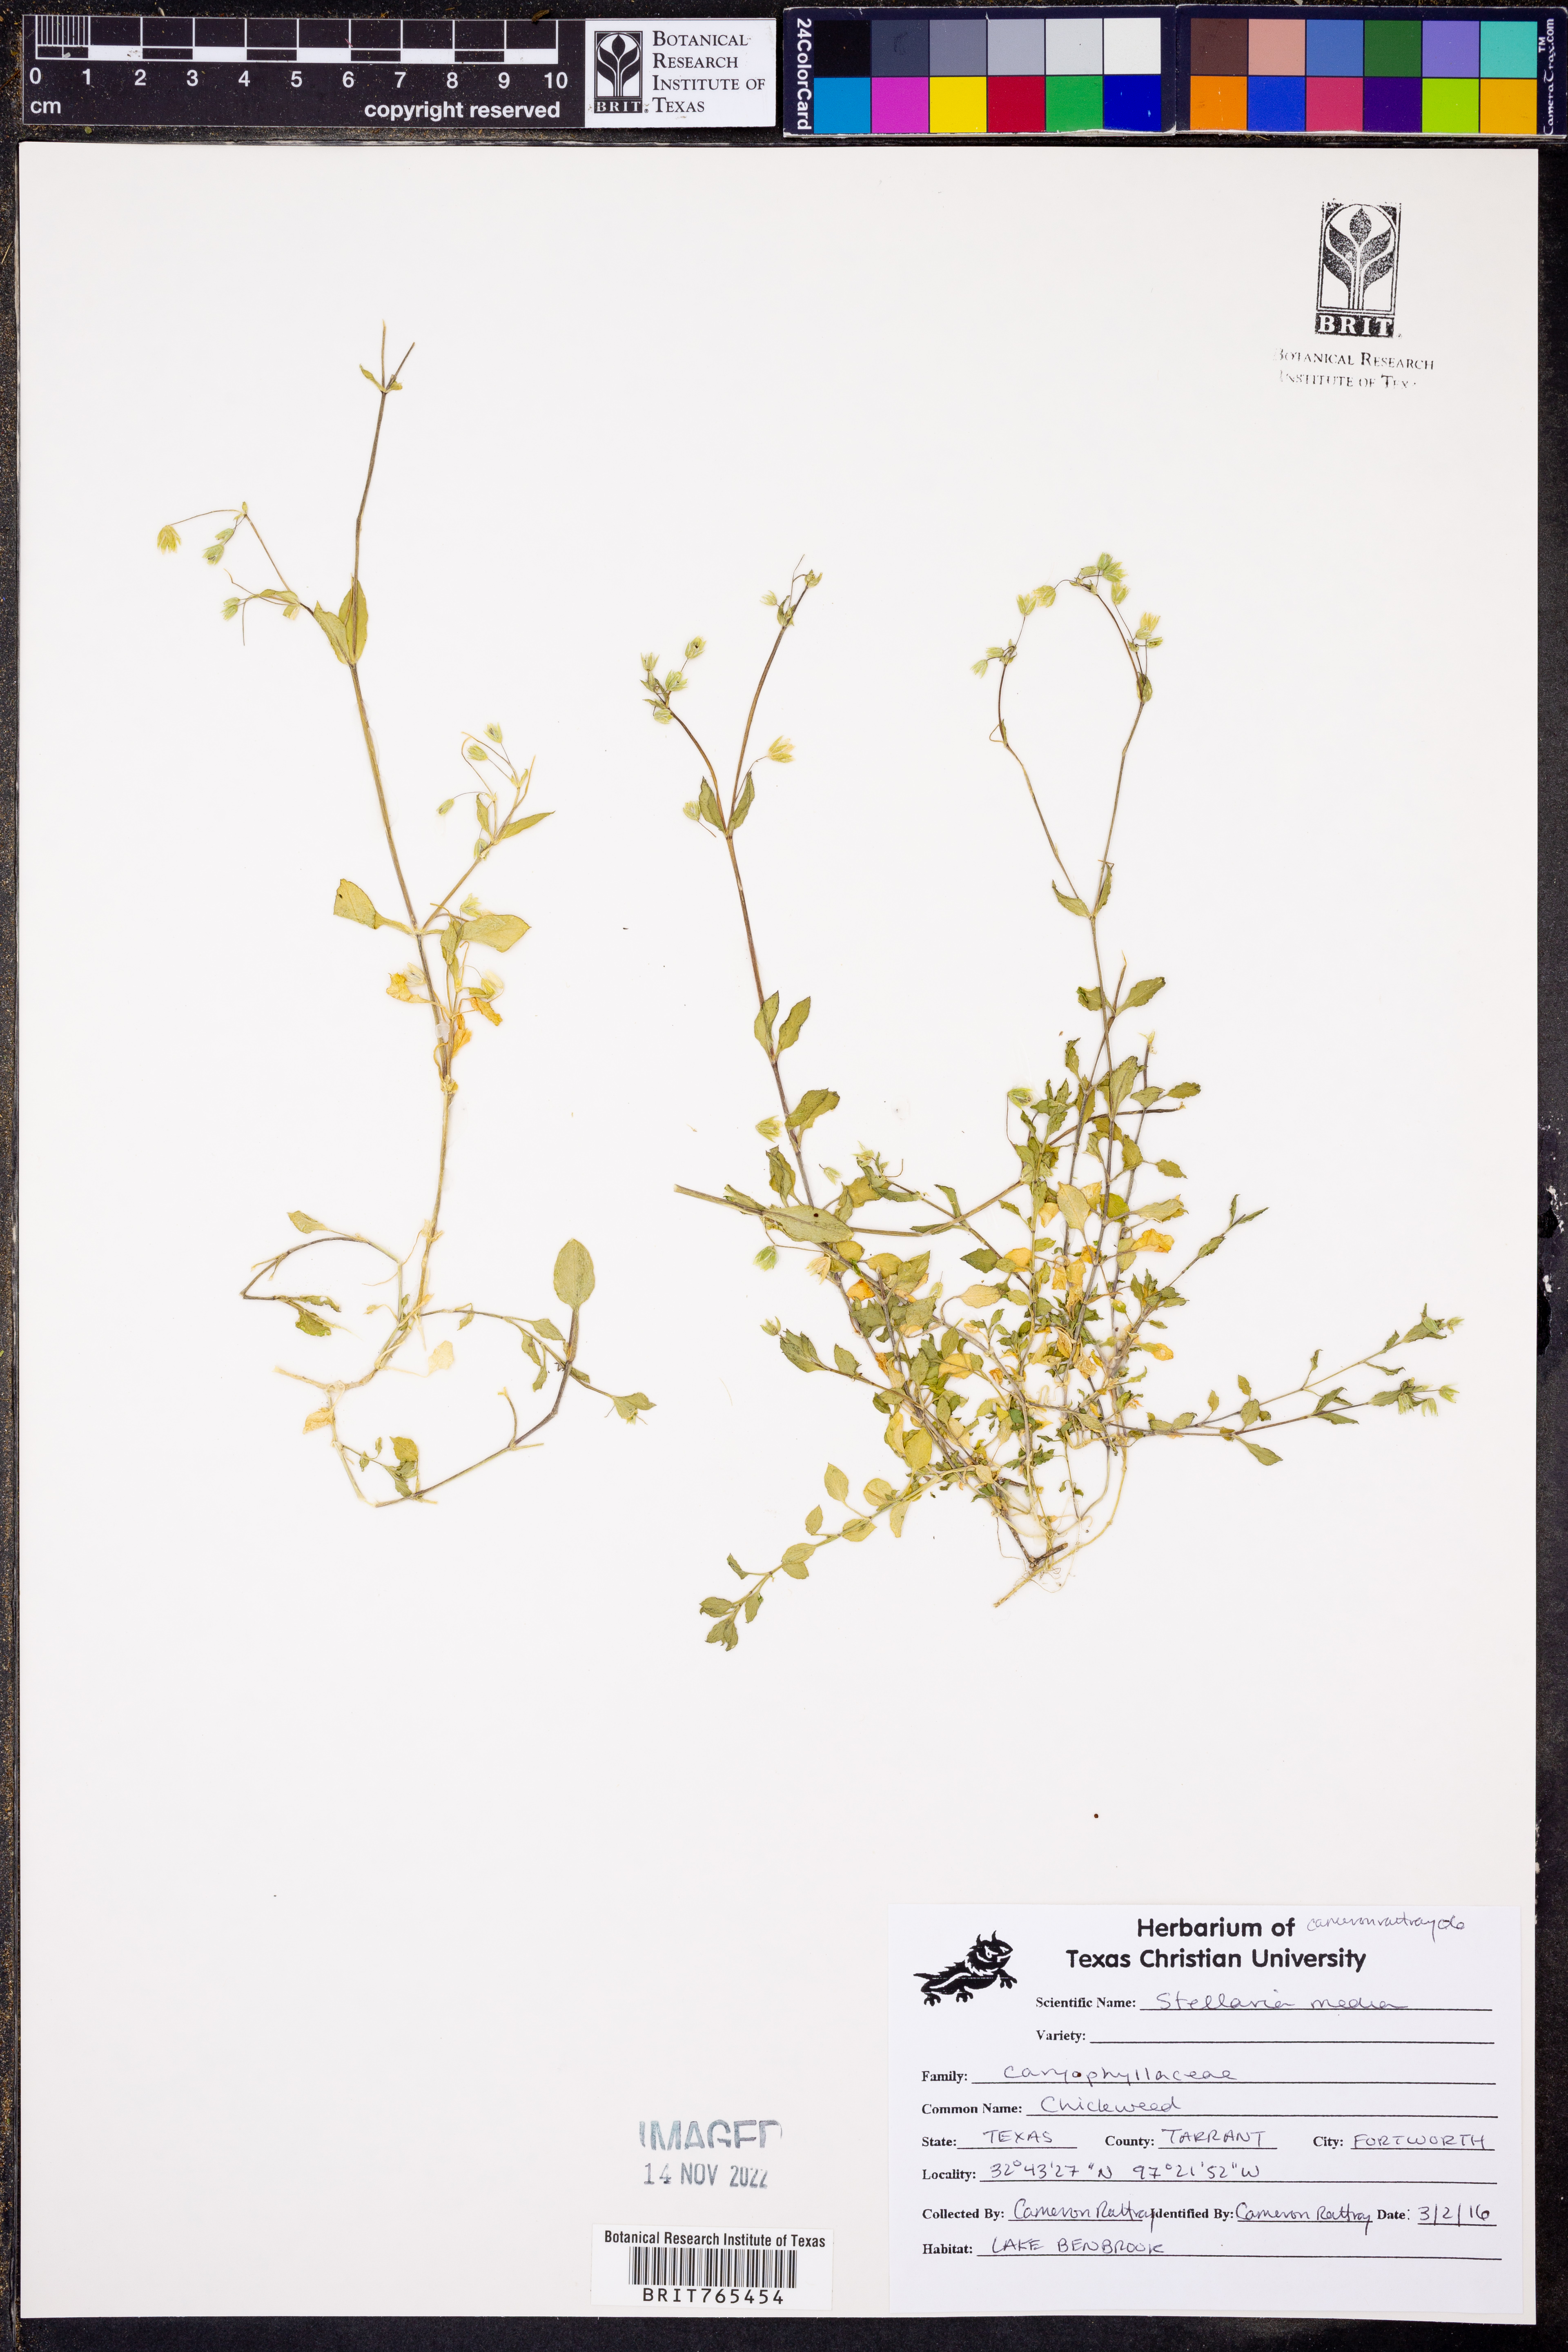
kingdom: Plantae
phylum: Tracheophyta
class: Magnoliopsida
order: Caryophyllales
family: Caryophyllaceae
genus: Stellaria
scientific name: Stellaria media
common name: Common chickweed
